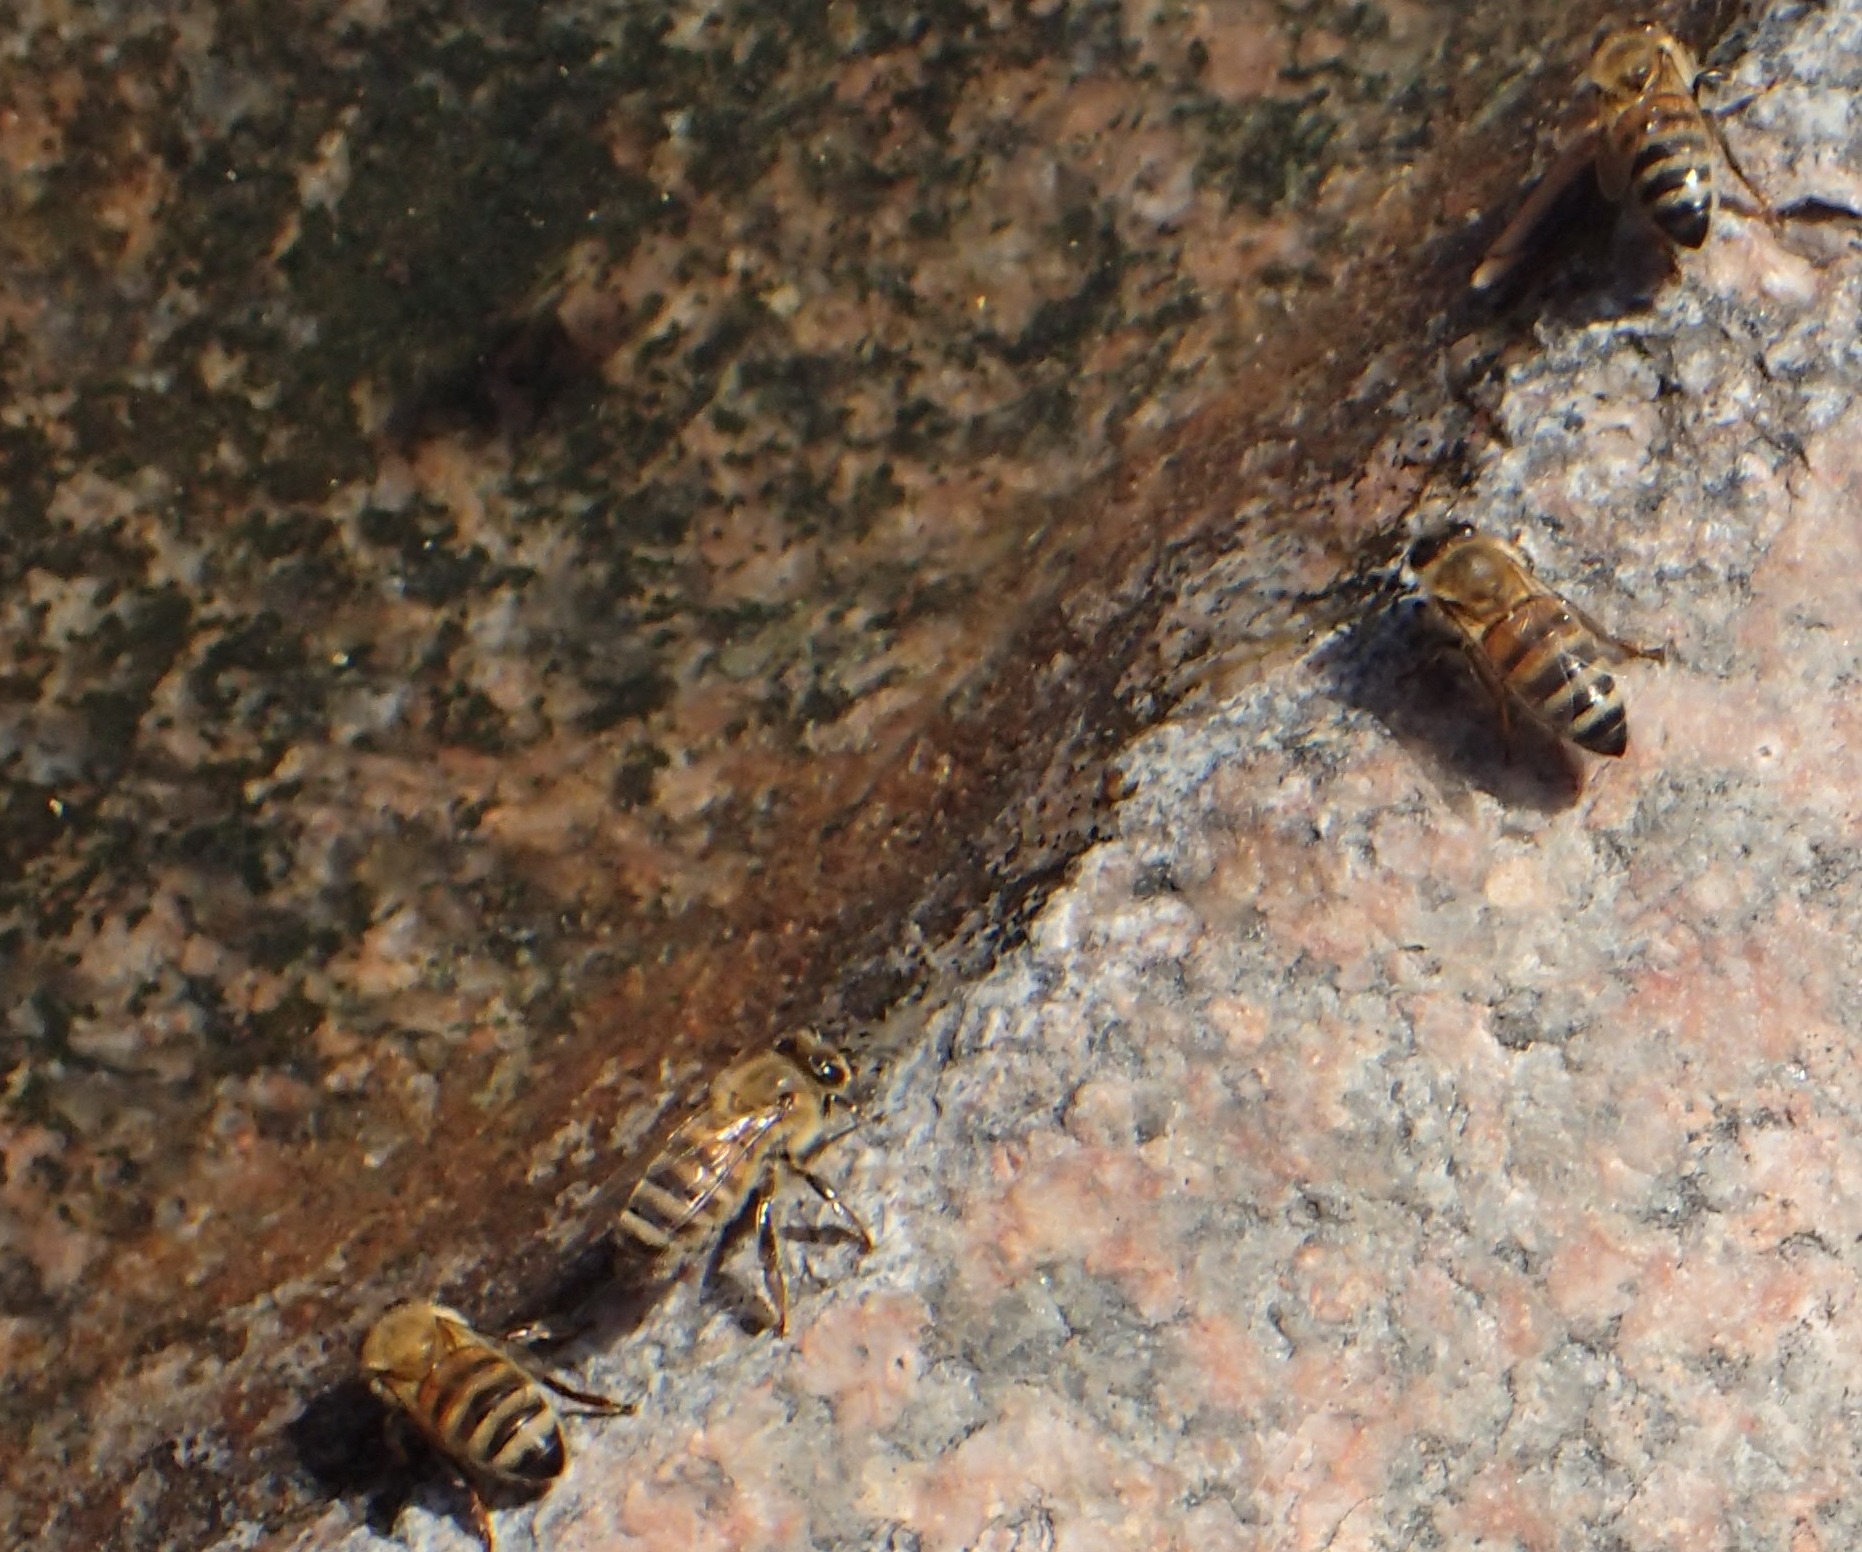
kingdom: Animalia
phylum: Arthropoda
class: Insecta
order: Hymenoptera
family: Apidae
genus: Apis
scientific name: Apis mellifera
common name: Honningbi
